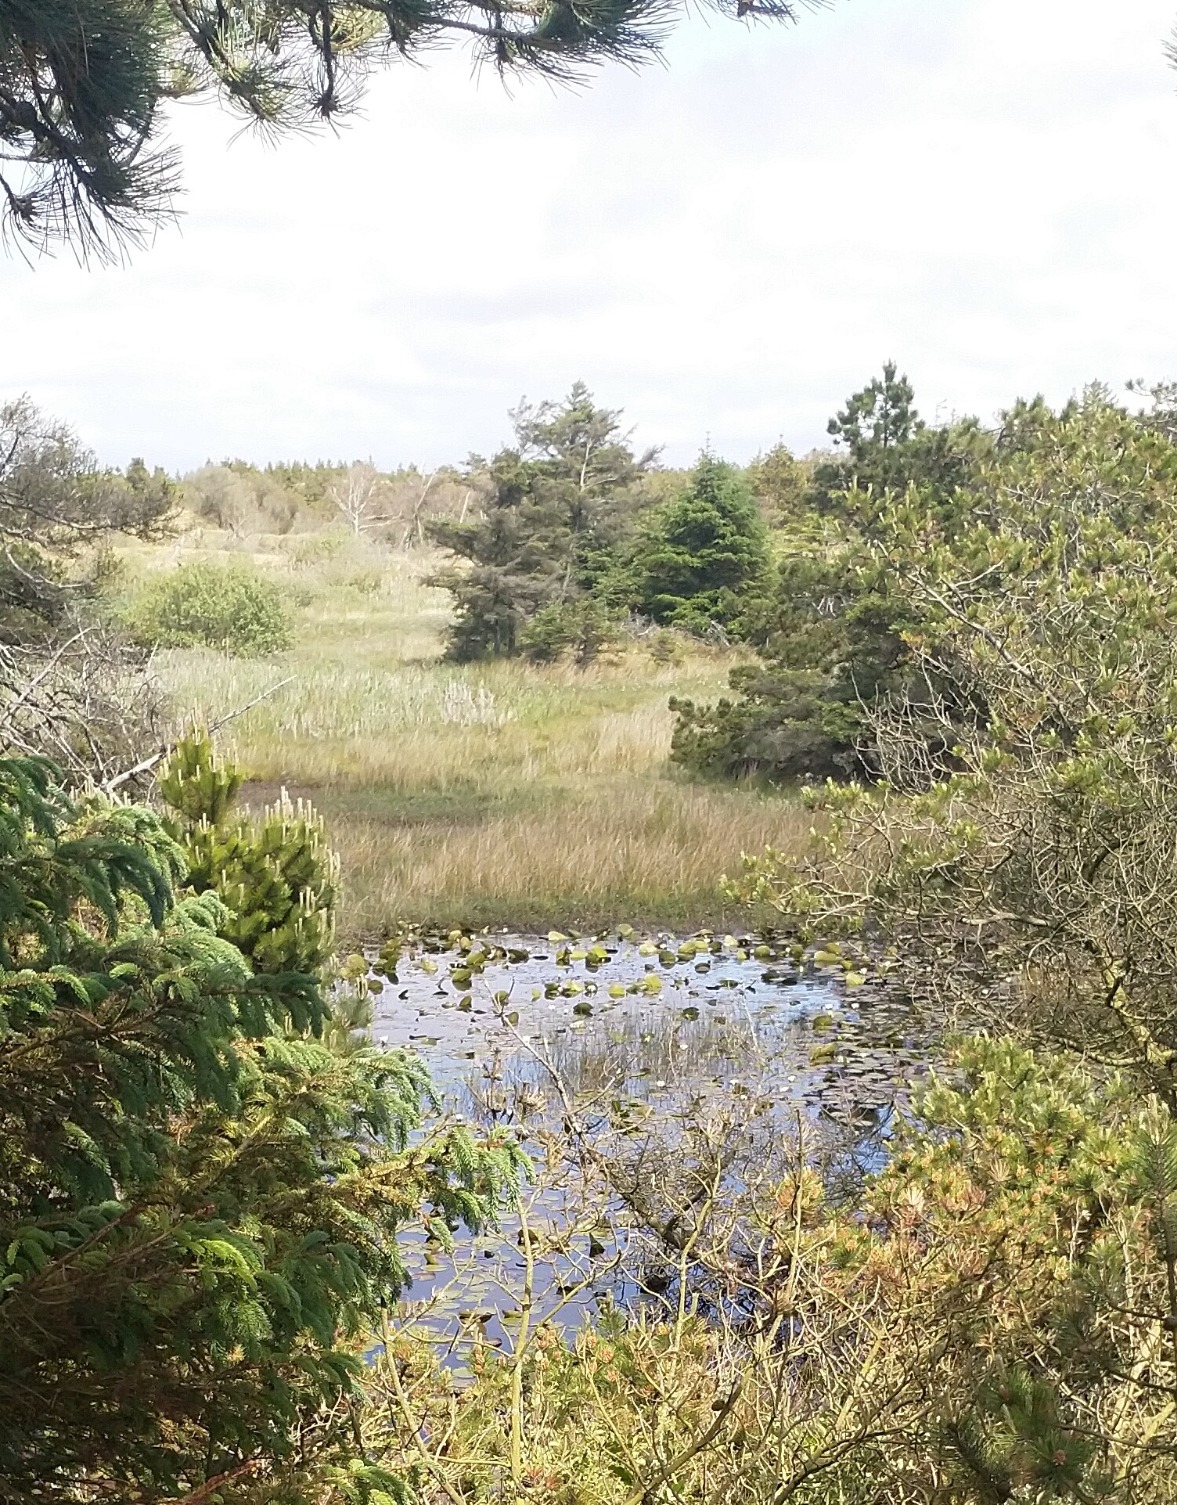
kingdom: Plantae
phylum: Tracheophyta
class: Magnoliopsida
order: Nymphaeales
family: Nymphaeaceae
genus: Nymphaea
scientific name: Nymphaea alba
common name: Hvid åkande
